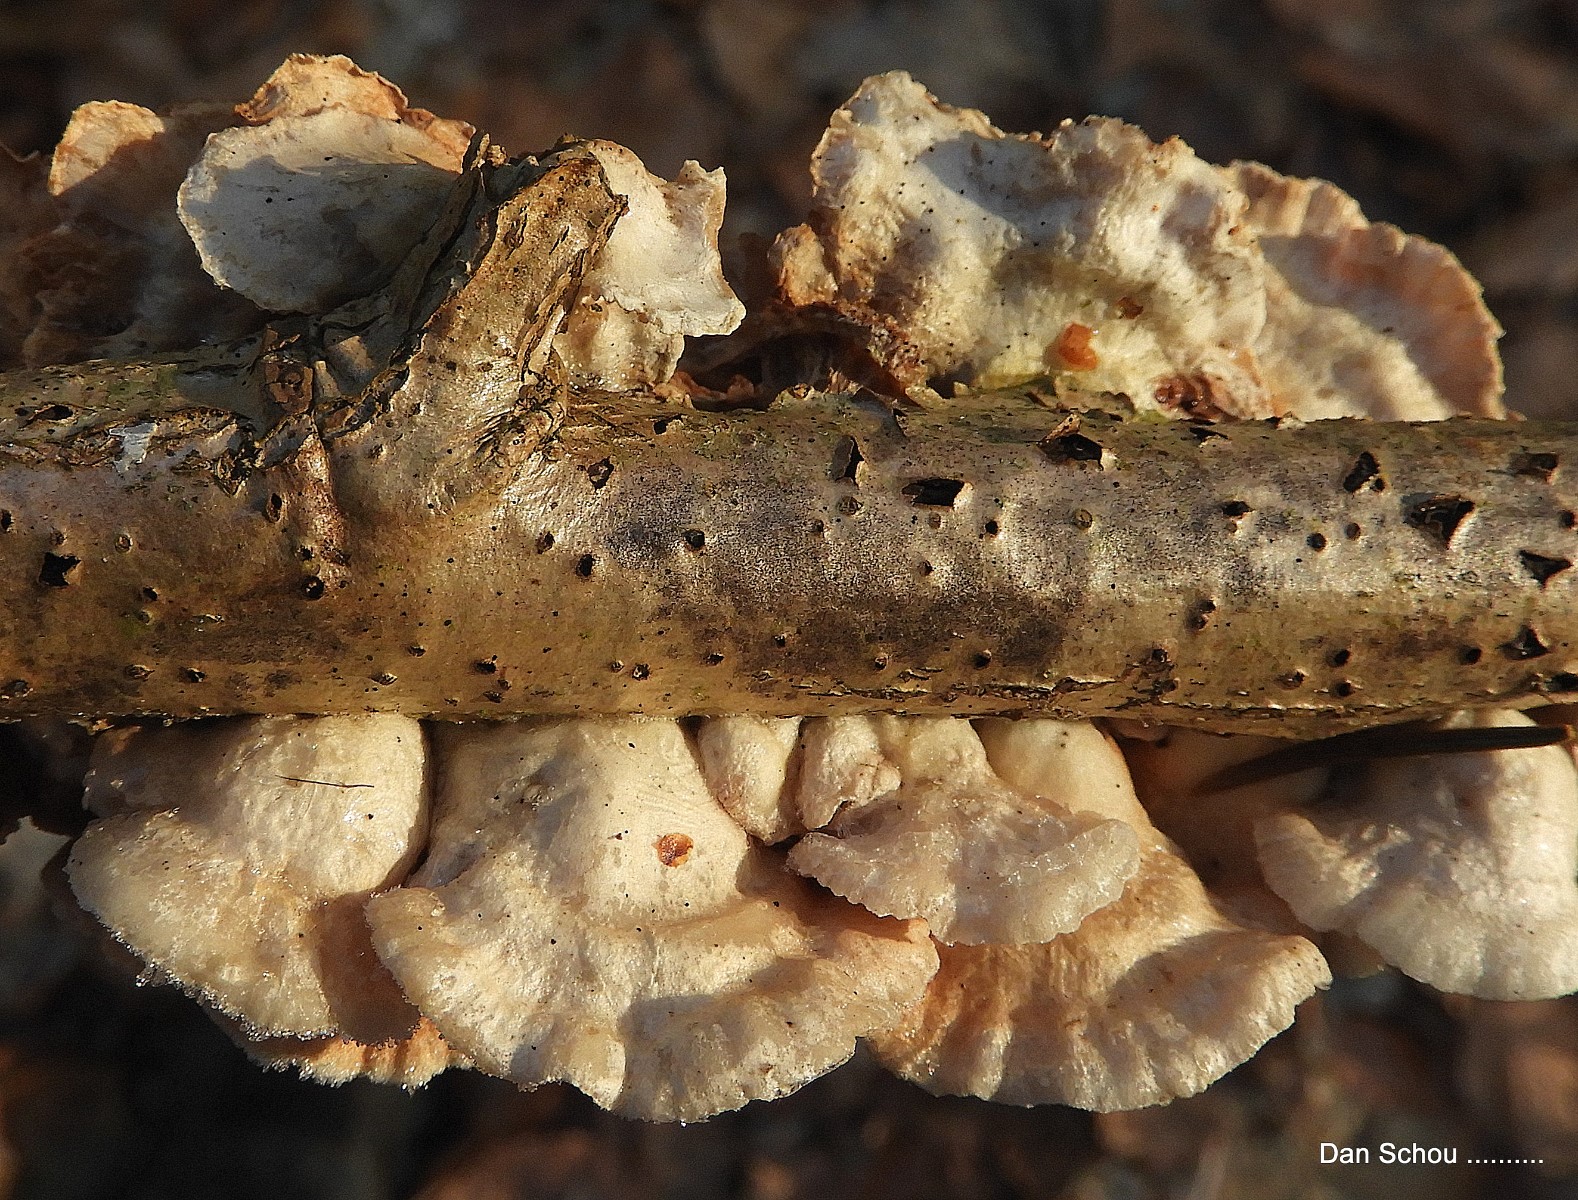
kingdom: Fungi
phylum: Basidiomycota
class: Agaricomycetes
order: Agaricales
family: Crepidotaceae
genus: Crepidotus
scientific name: Crepidotus
